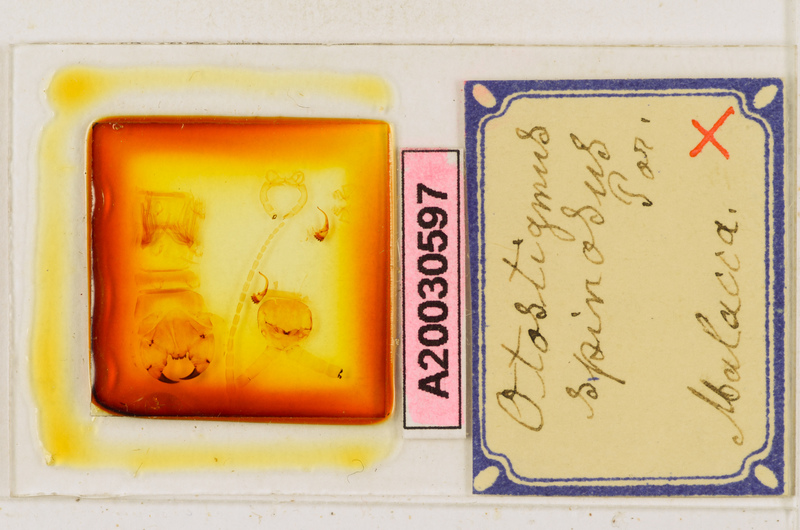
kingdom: Animalia
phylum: Arthropoda
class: Chilopoda
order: Scolopendromorpha
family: Scolopendridae
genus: Otostigmus
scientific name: Otostigmus spinosus
